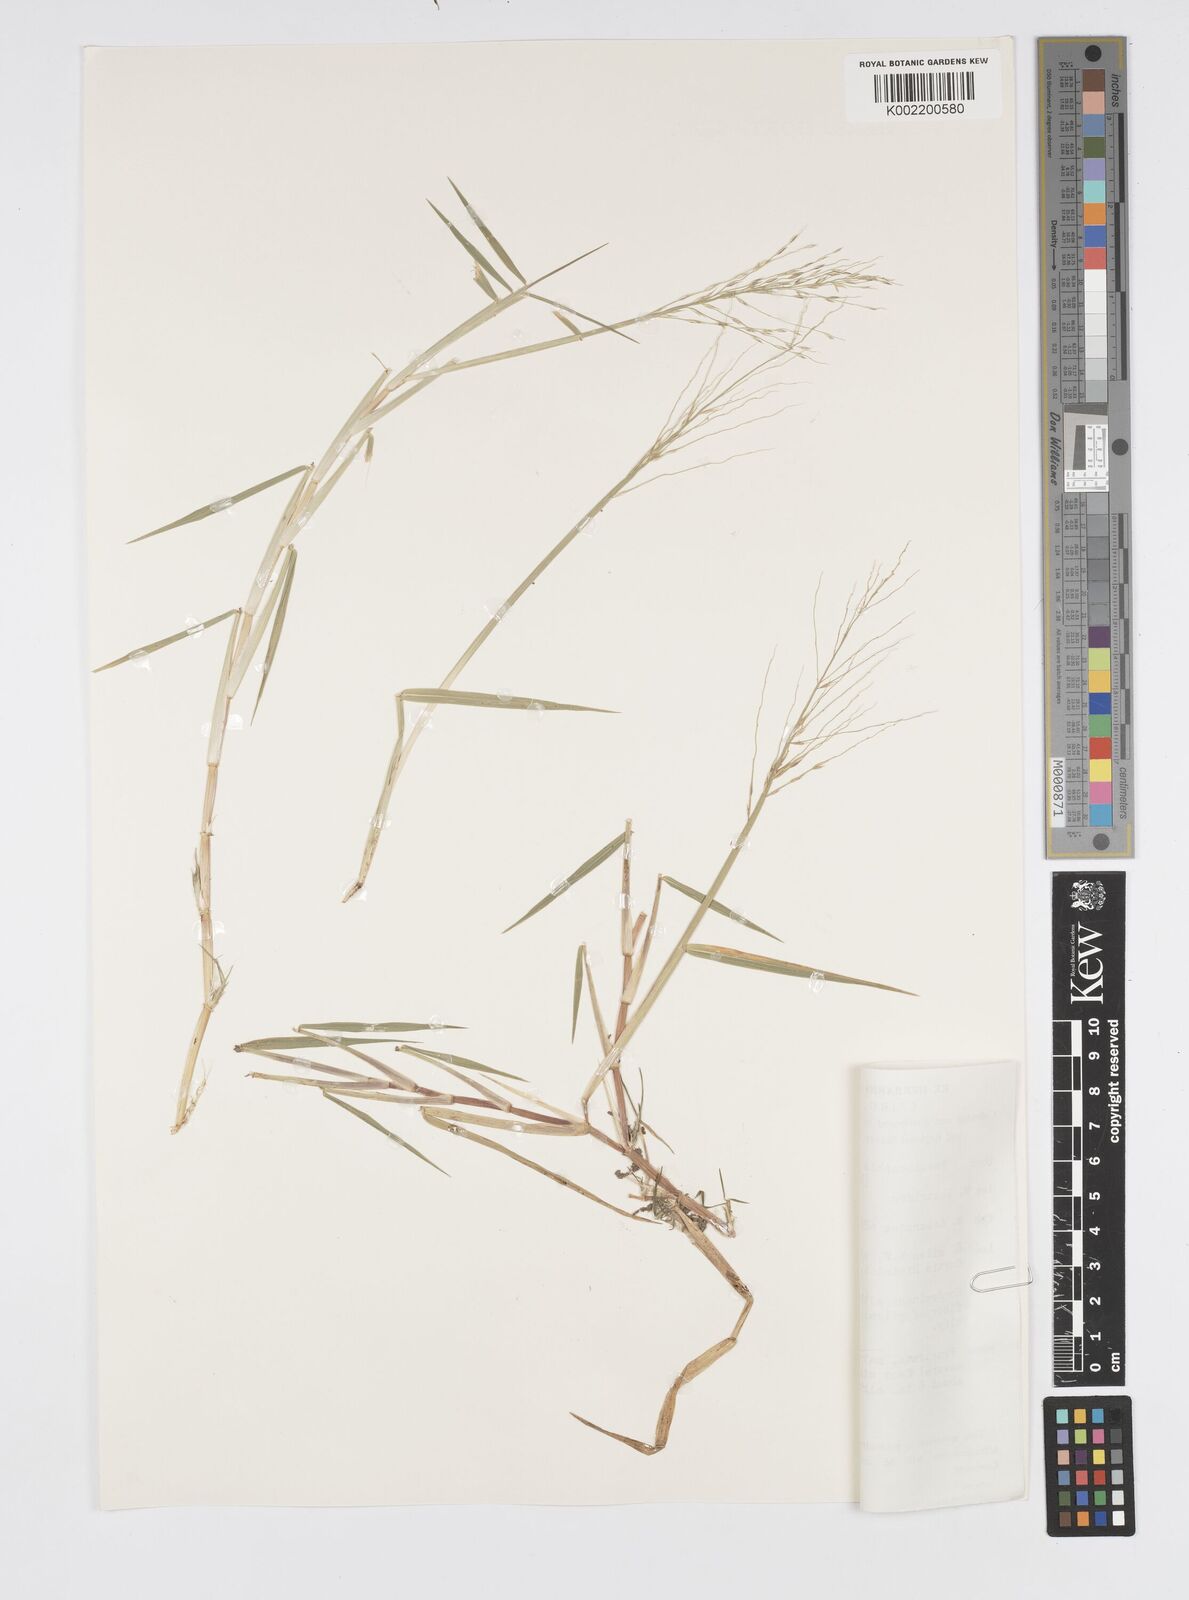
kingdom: Plantae
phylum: Tracheophyta
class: Liliopsida
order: Poales
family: Poaceae
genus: Pseudoraphis
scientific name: Pseudoraphis spinescens
